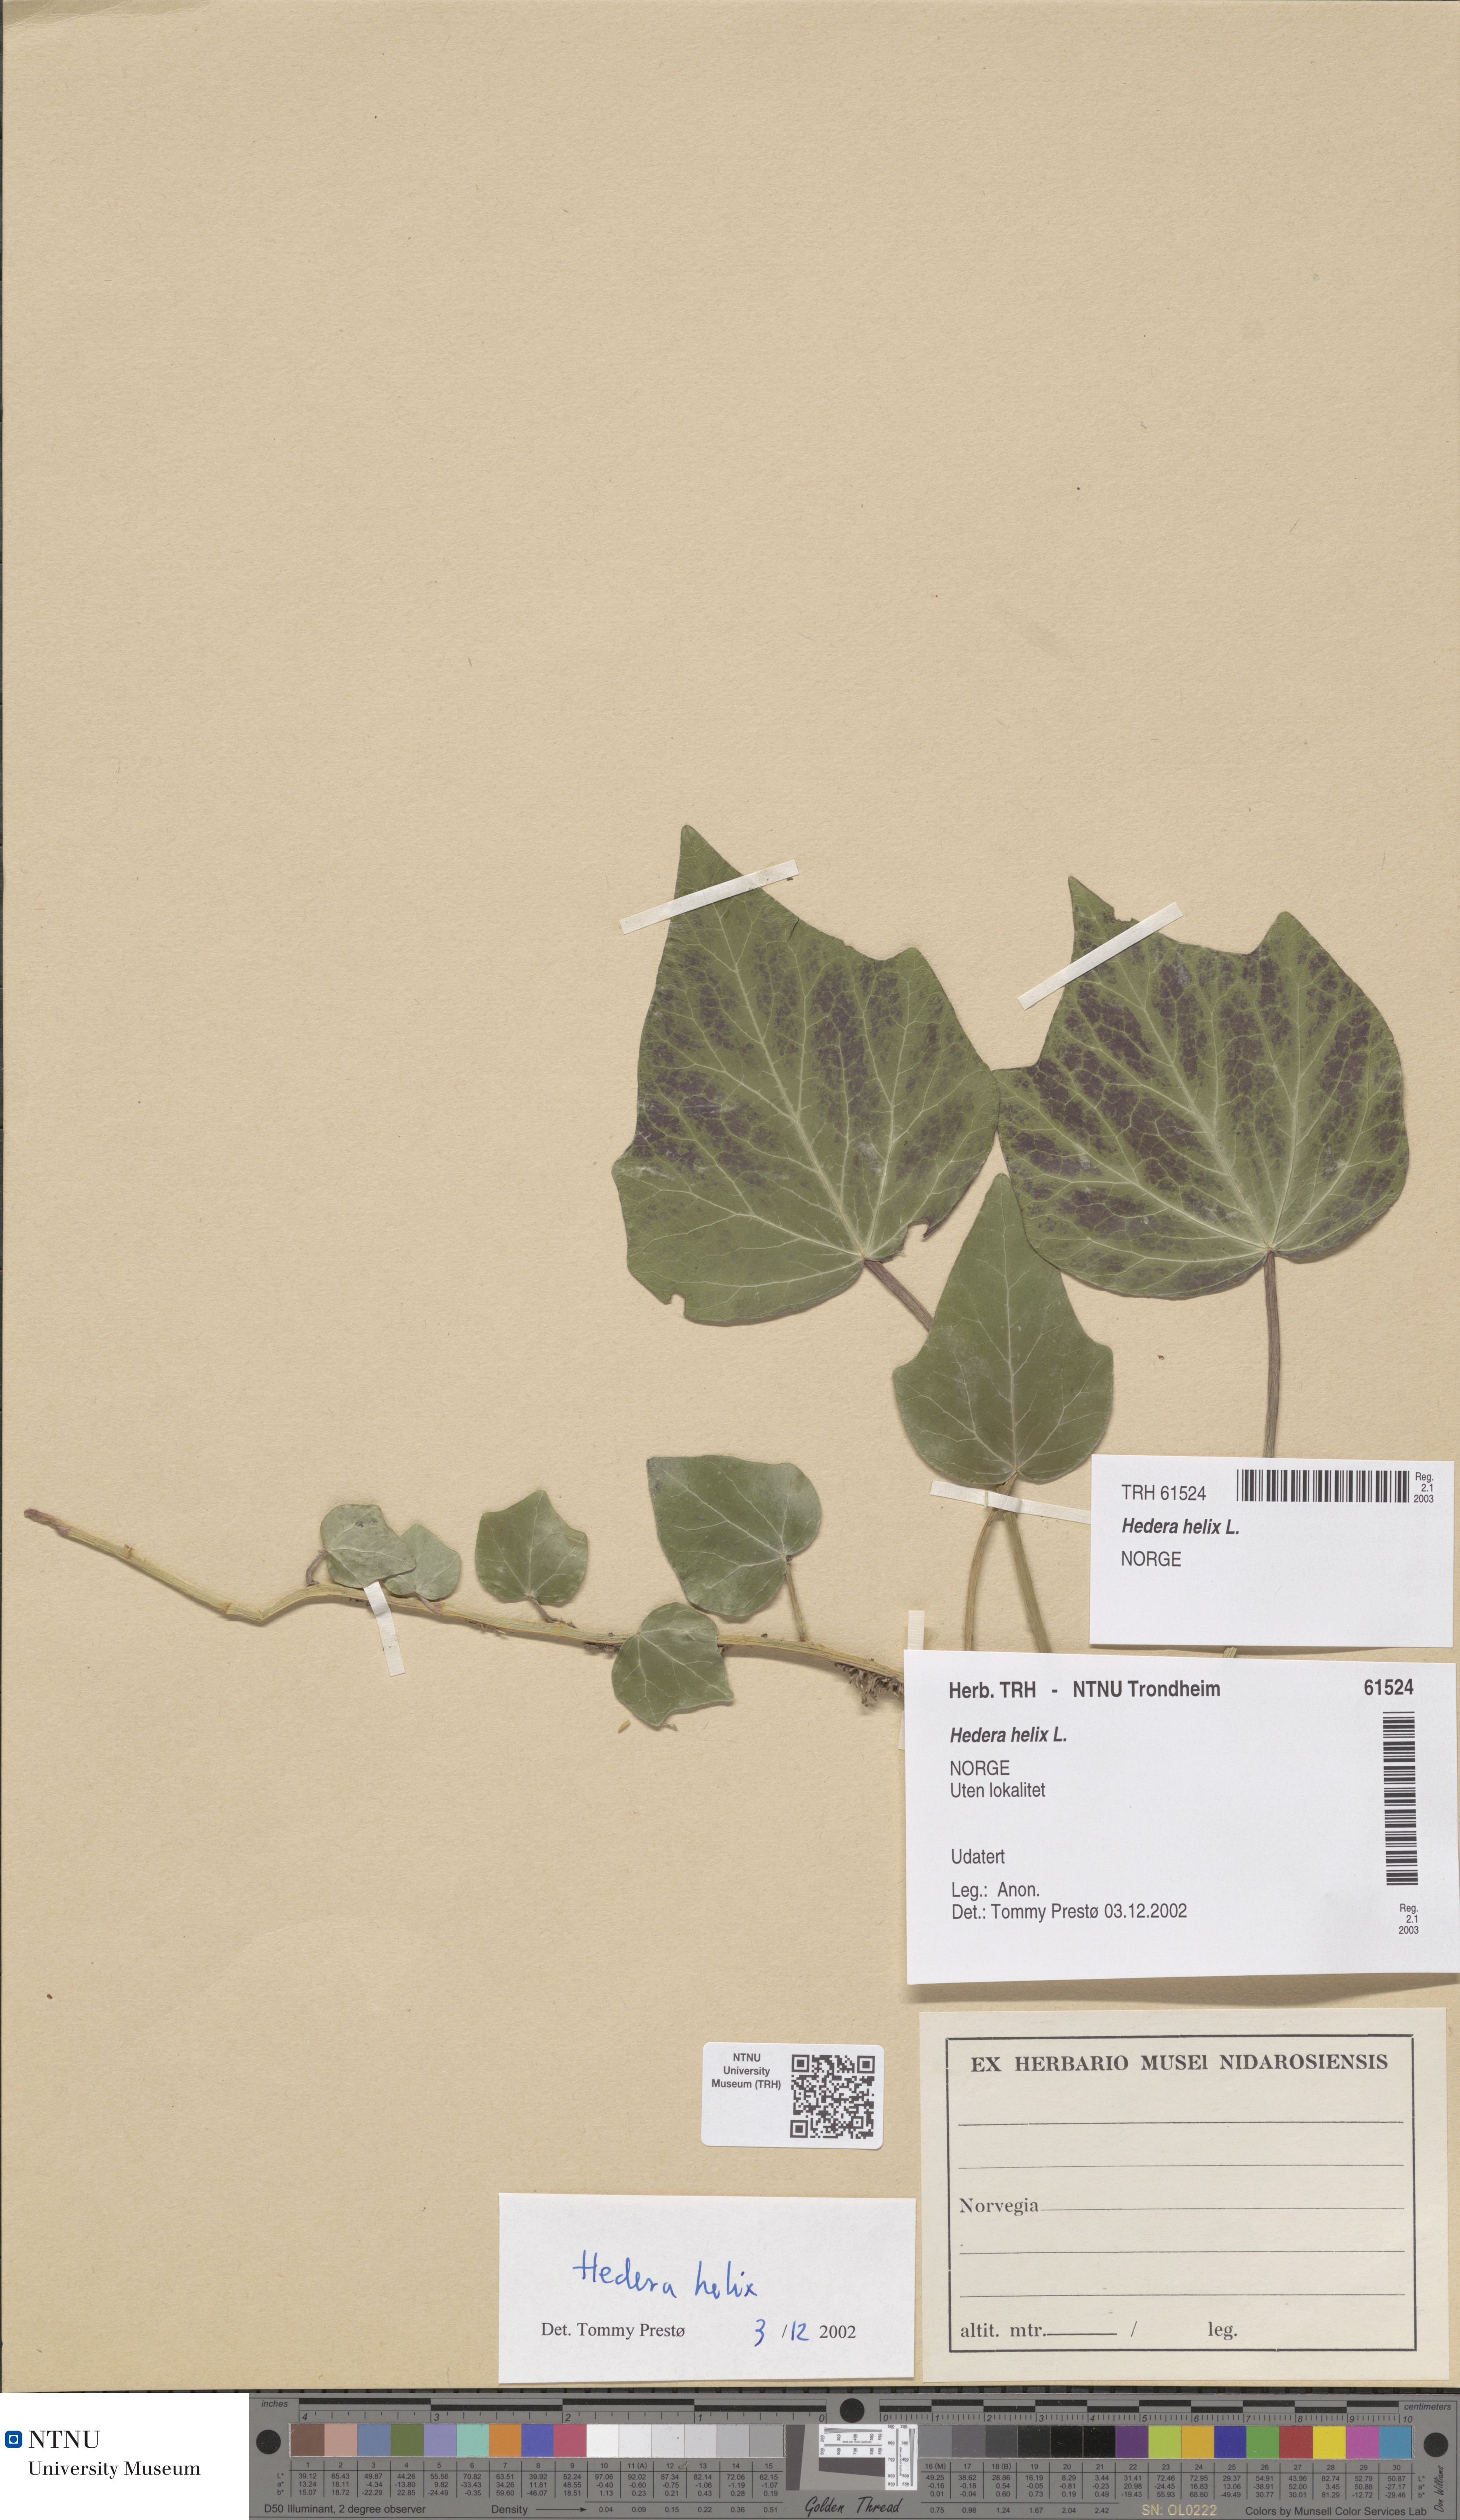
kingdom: Plantae
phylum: Tracheophyta
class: Magnoliopsida
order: Apiales
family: Araliaceae
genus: Hedera
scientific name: Hedera helix
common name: Ivy
